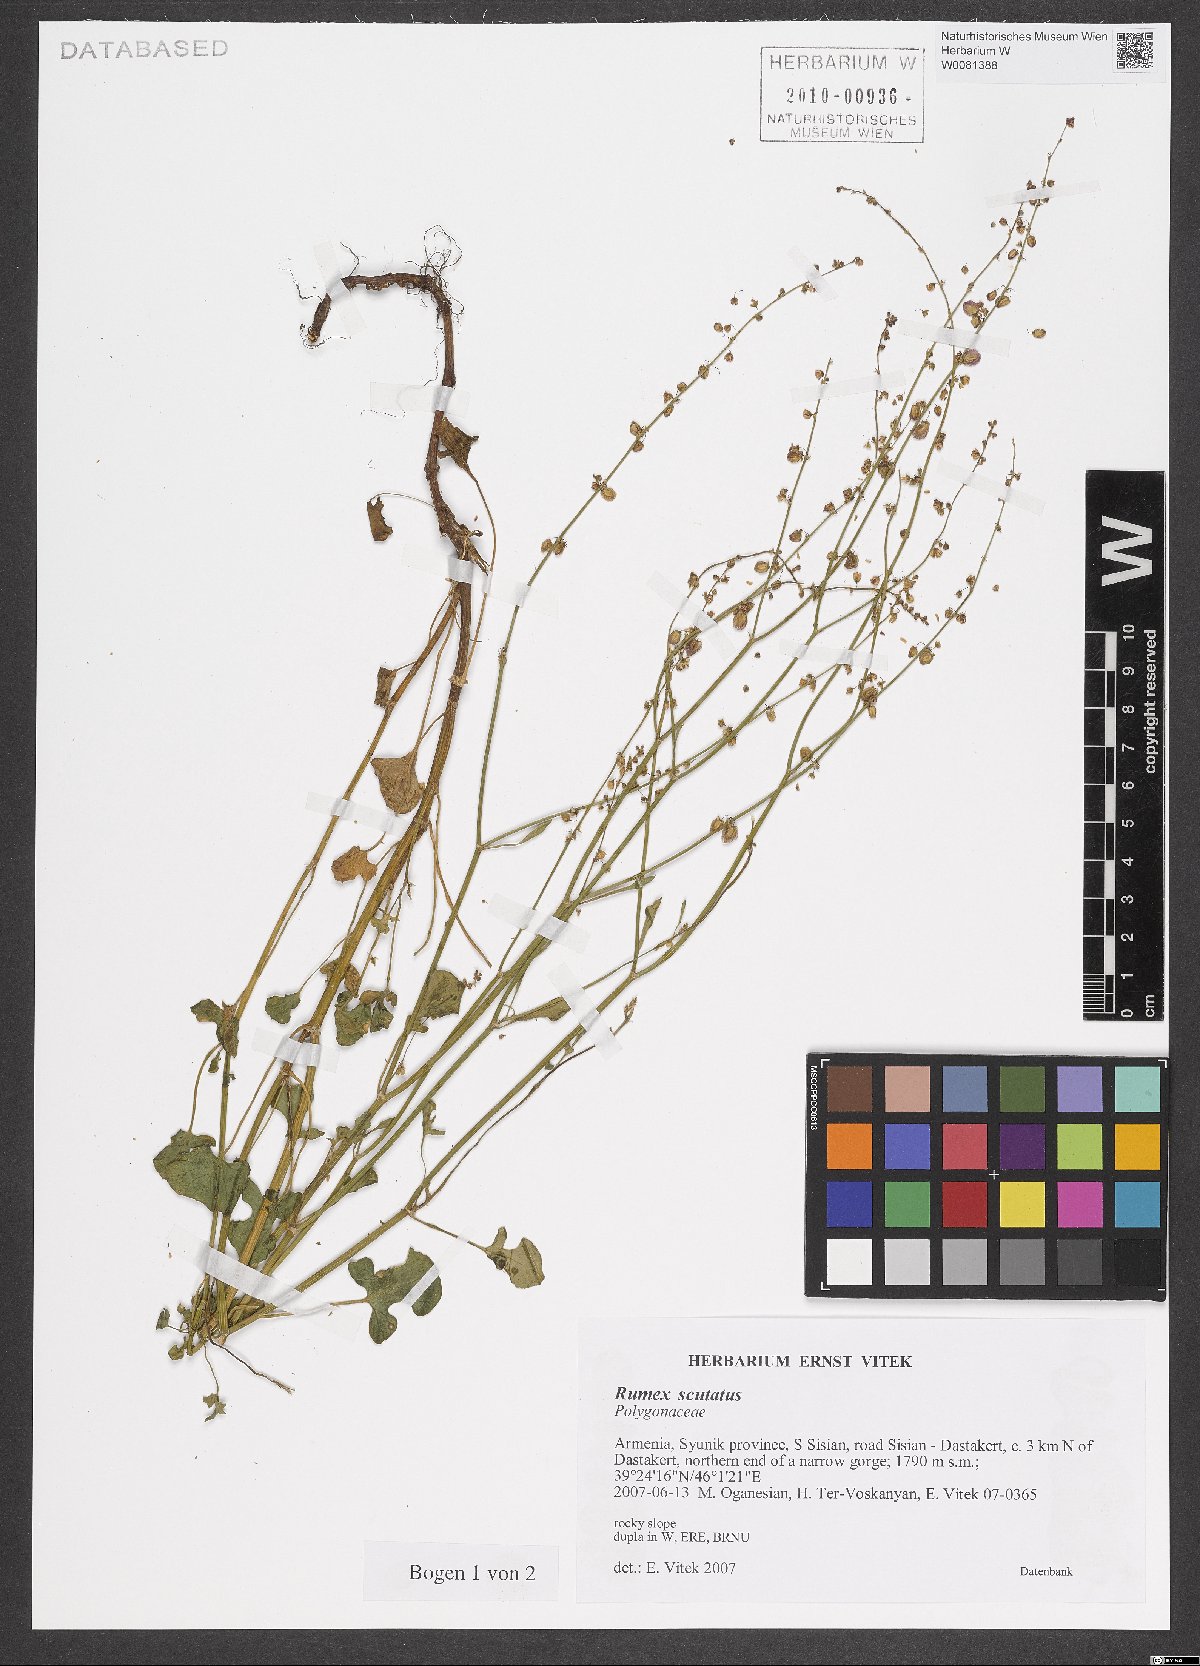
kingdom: Plantae
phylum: Tracheophyta
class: Magnoliopsida
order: Caryophyllales
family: Polygonaceae
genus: Rumex
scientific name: Rumex scutatus
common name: French sorrel
